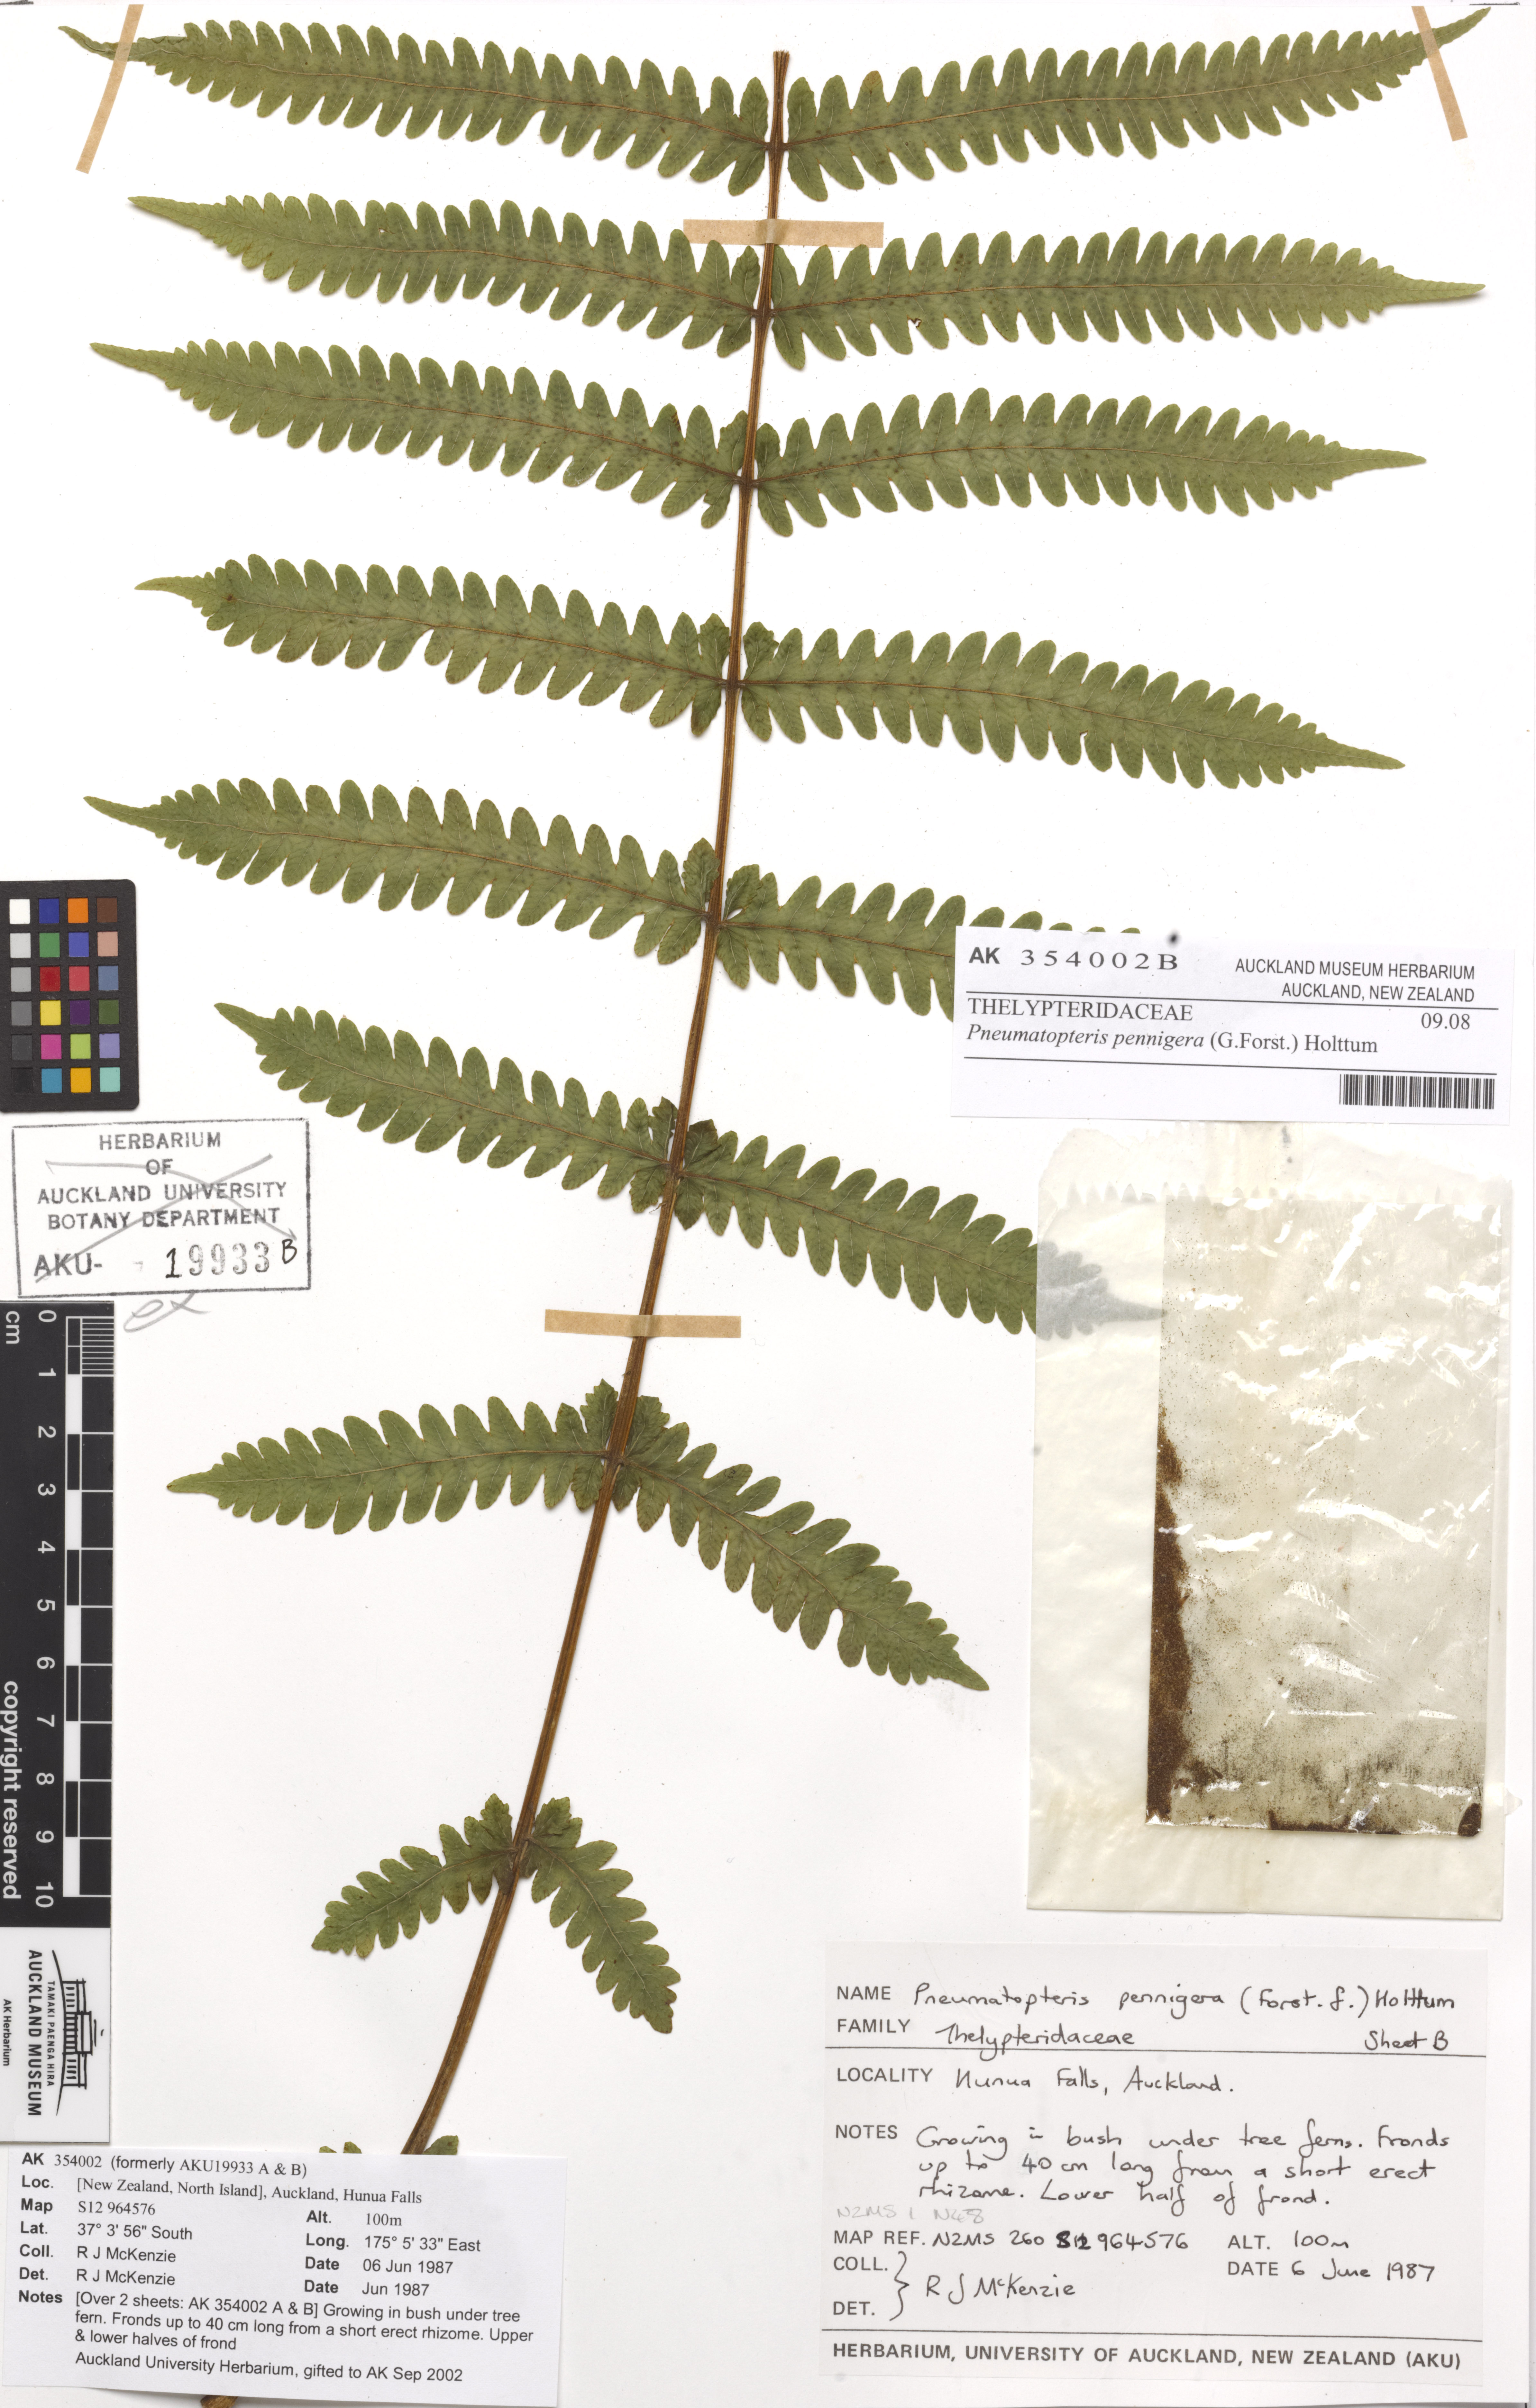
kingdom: Plantae
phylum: Tracheophyta
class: Polypodiopsida
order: Polypodiales
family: Thelypteridaceae
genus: Pakau
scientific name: Pakau pennigera
